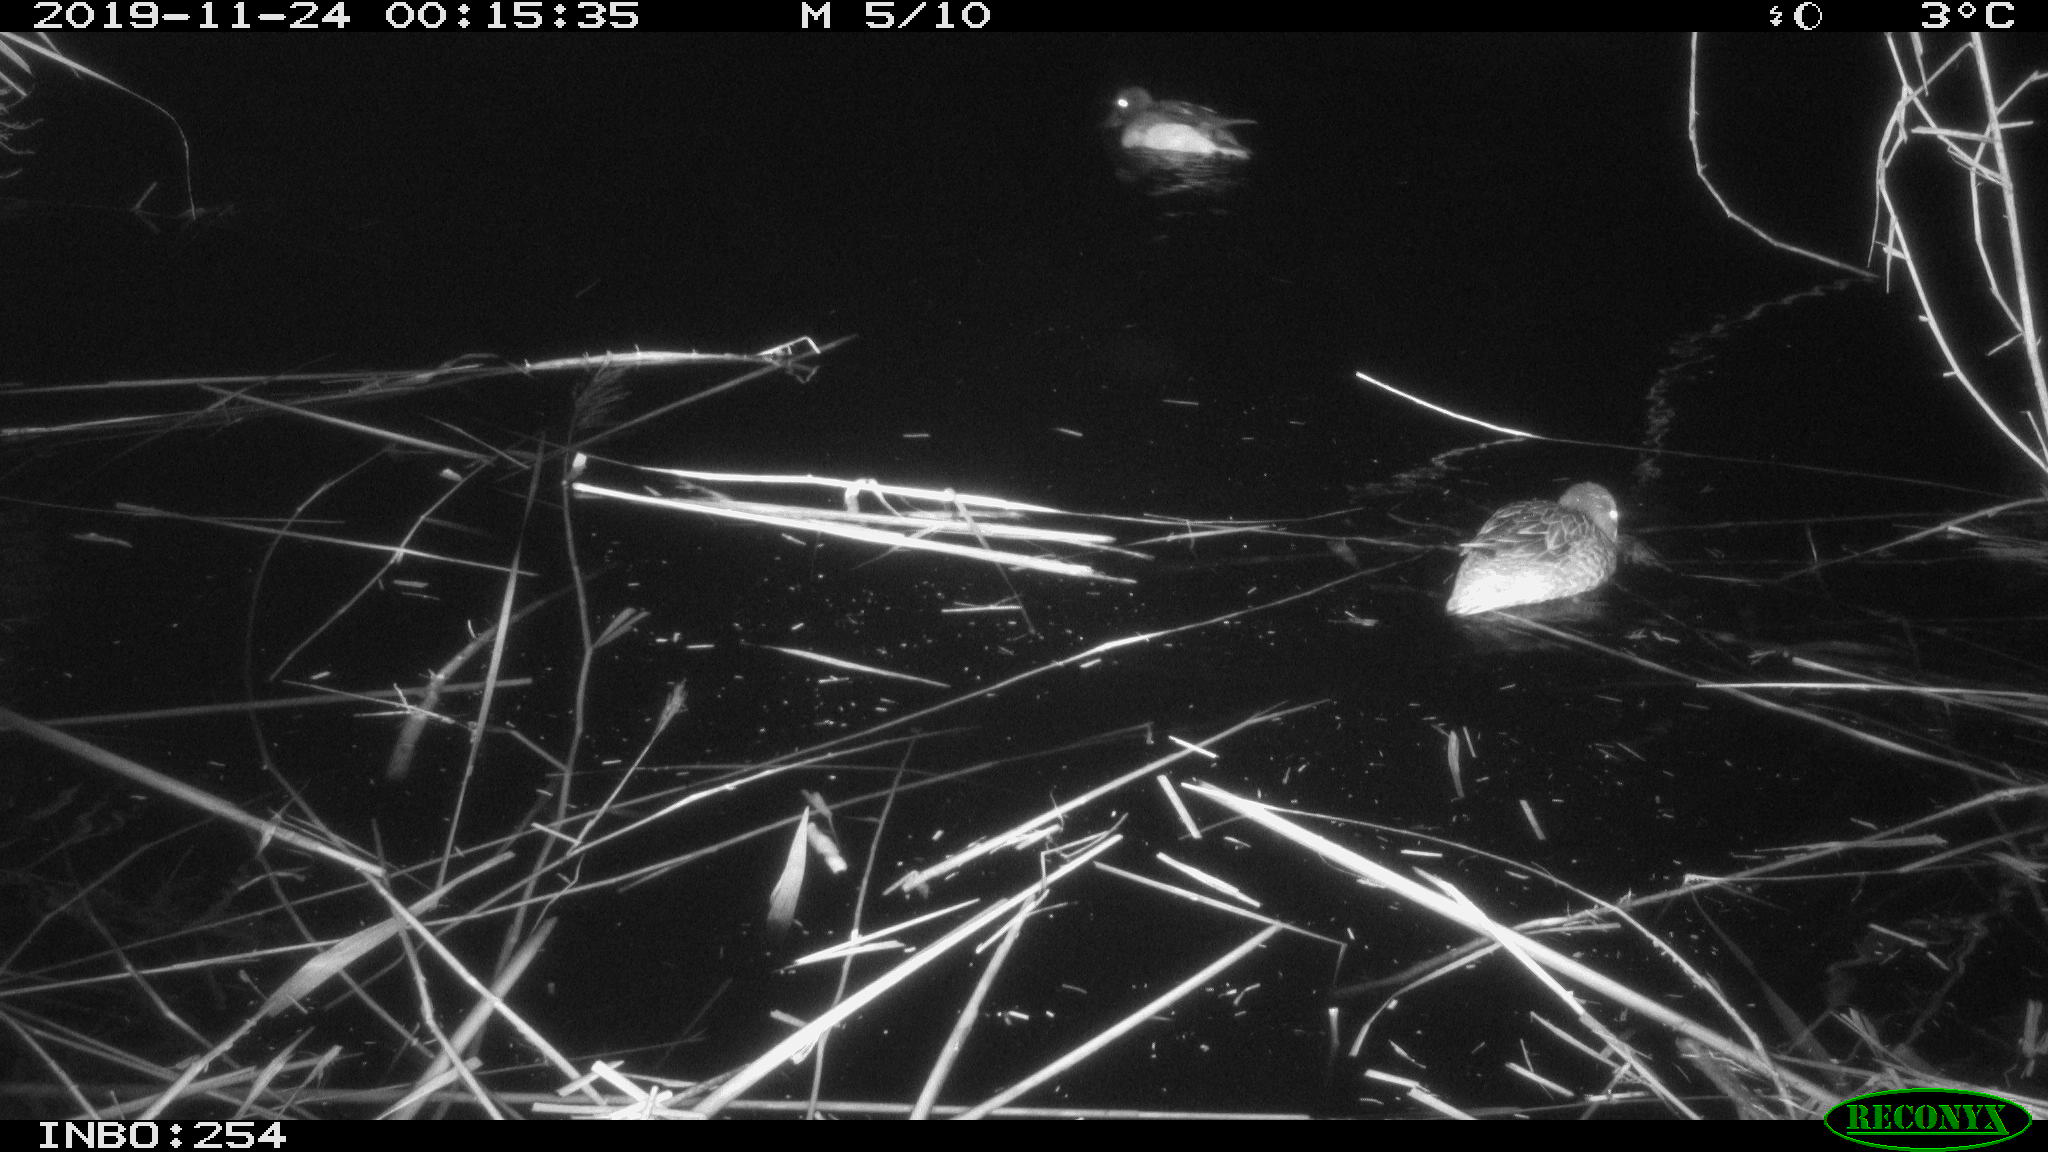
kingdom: Animalia
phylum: Chordata
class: Aves
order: Anseriformes
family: Anatidae
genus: Anas
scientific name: Anas platyrhynchos
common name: Mallard
